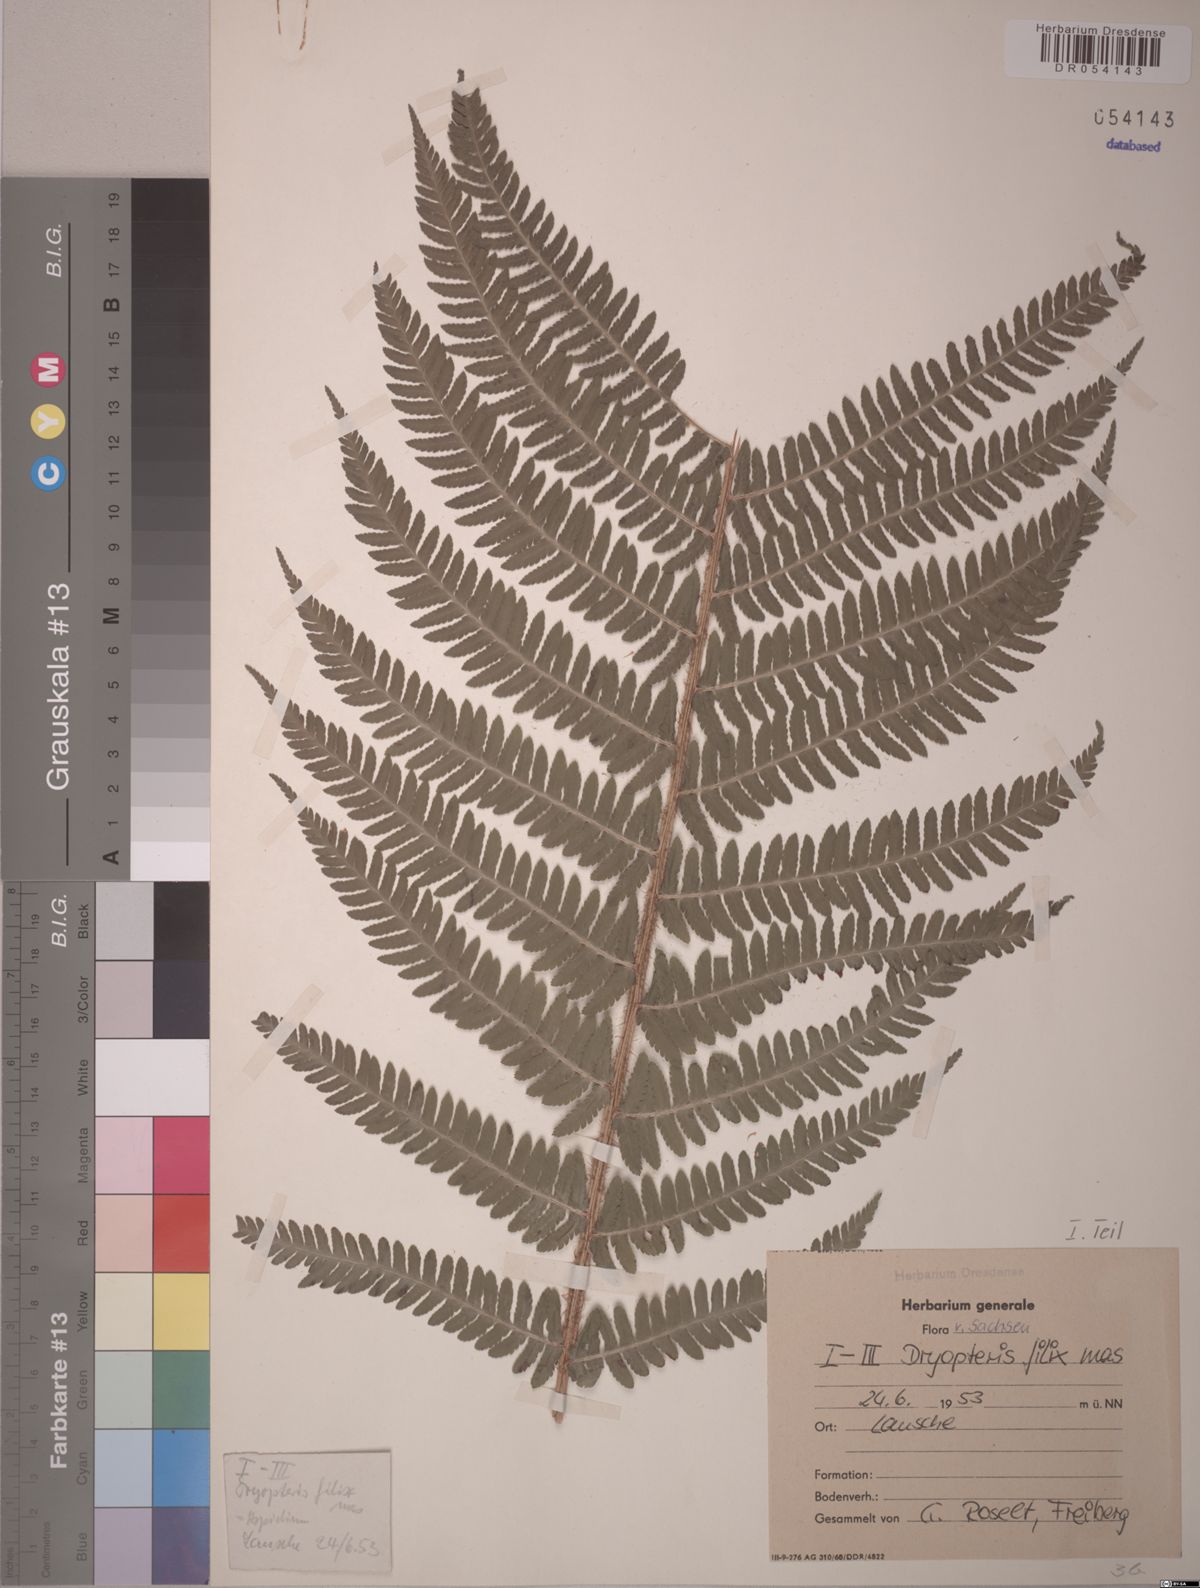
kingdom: Plantae
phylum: Tracheophyta
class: Polypodiopsida
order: Polypodiales
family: Dryopteridaceae
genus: Dryopteris
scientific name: Dryopteris filix-mas
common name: Male fern
